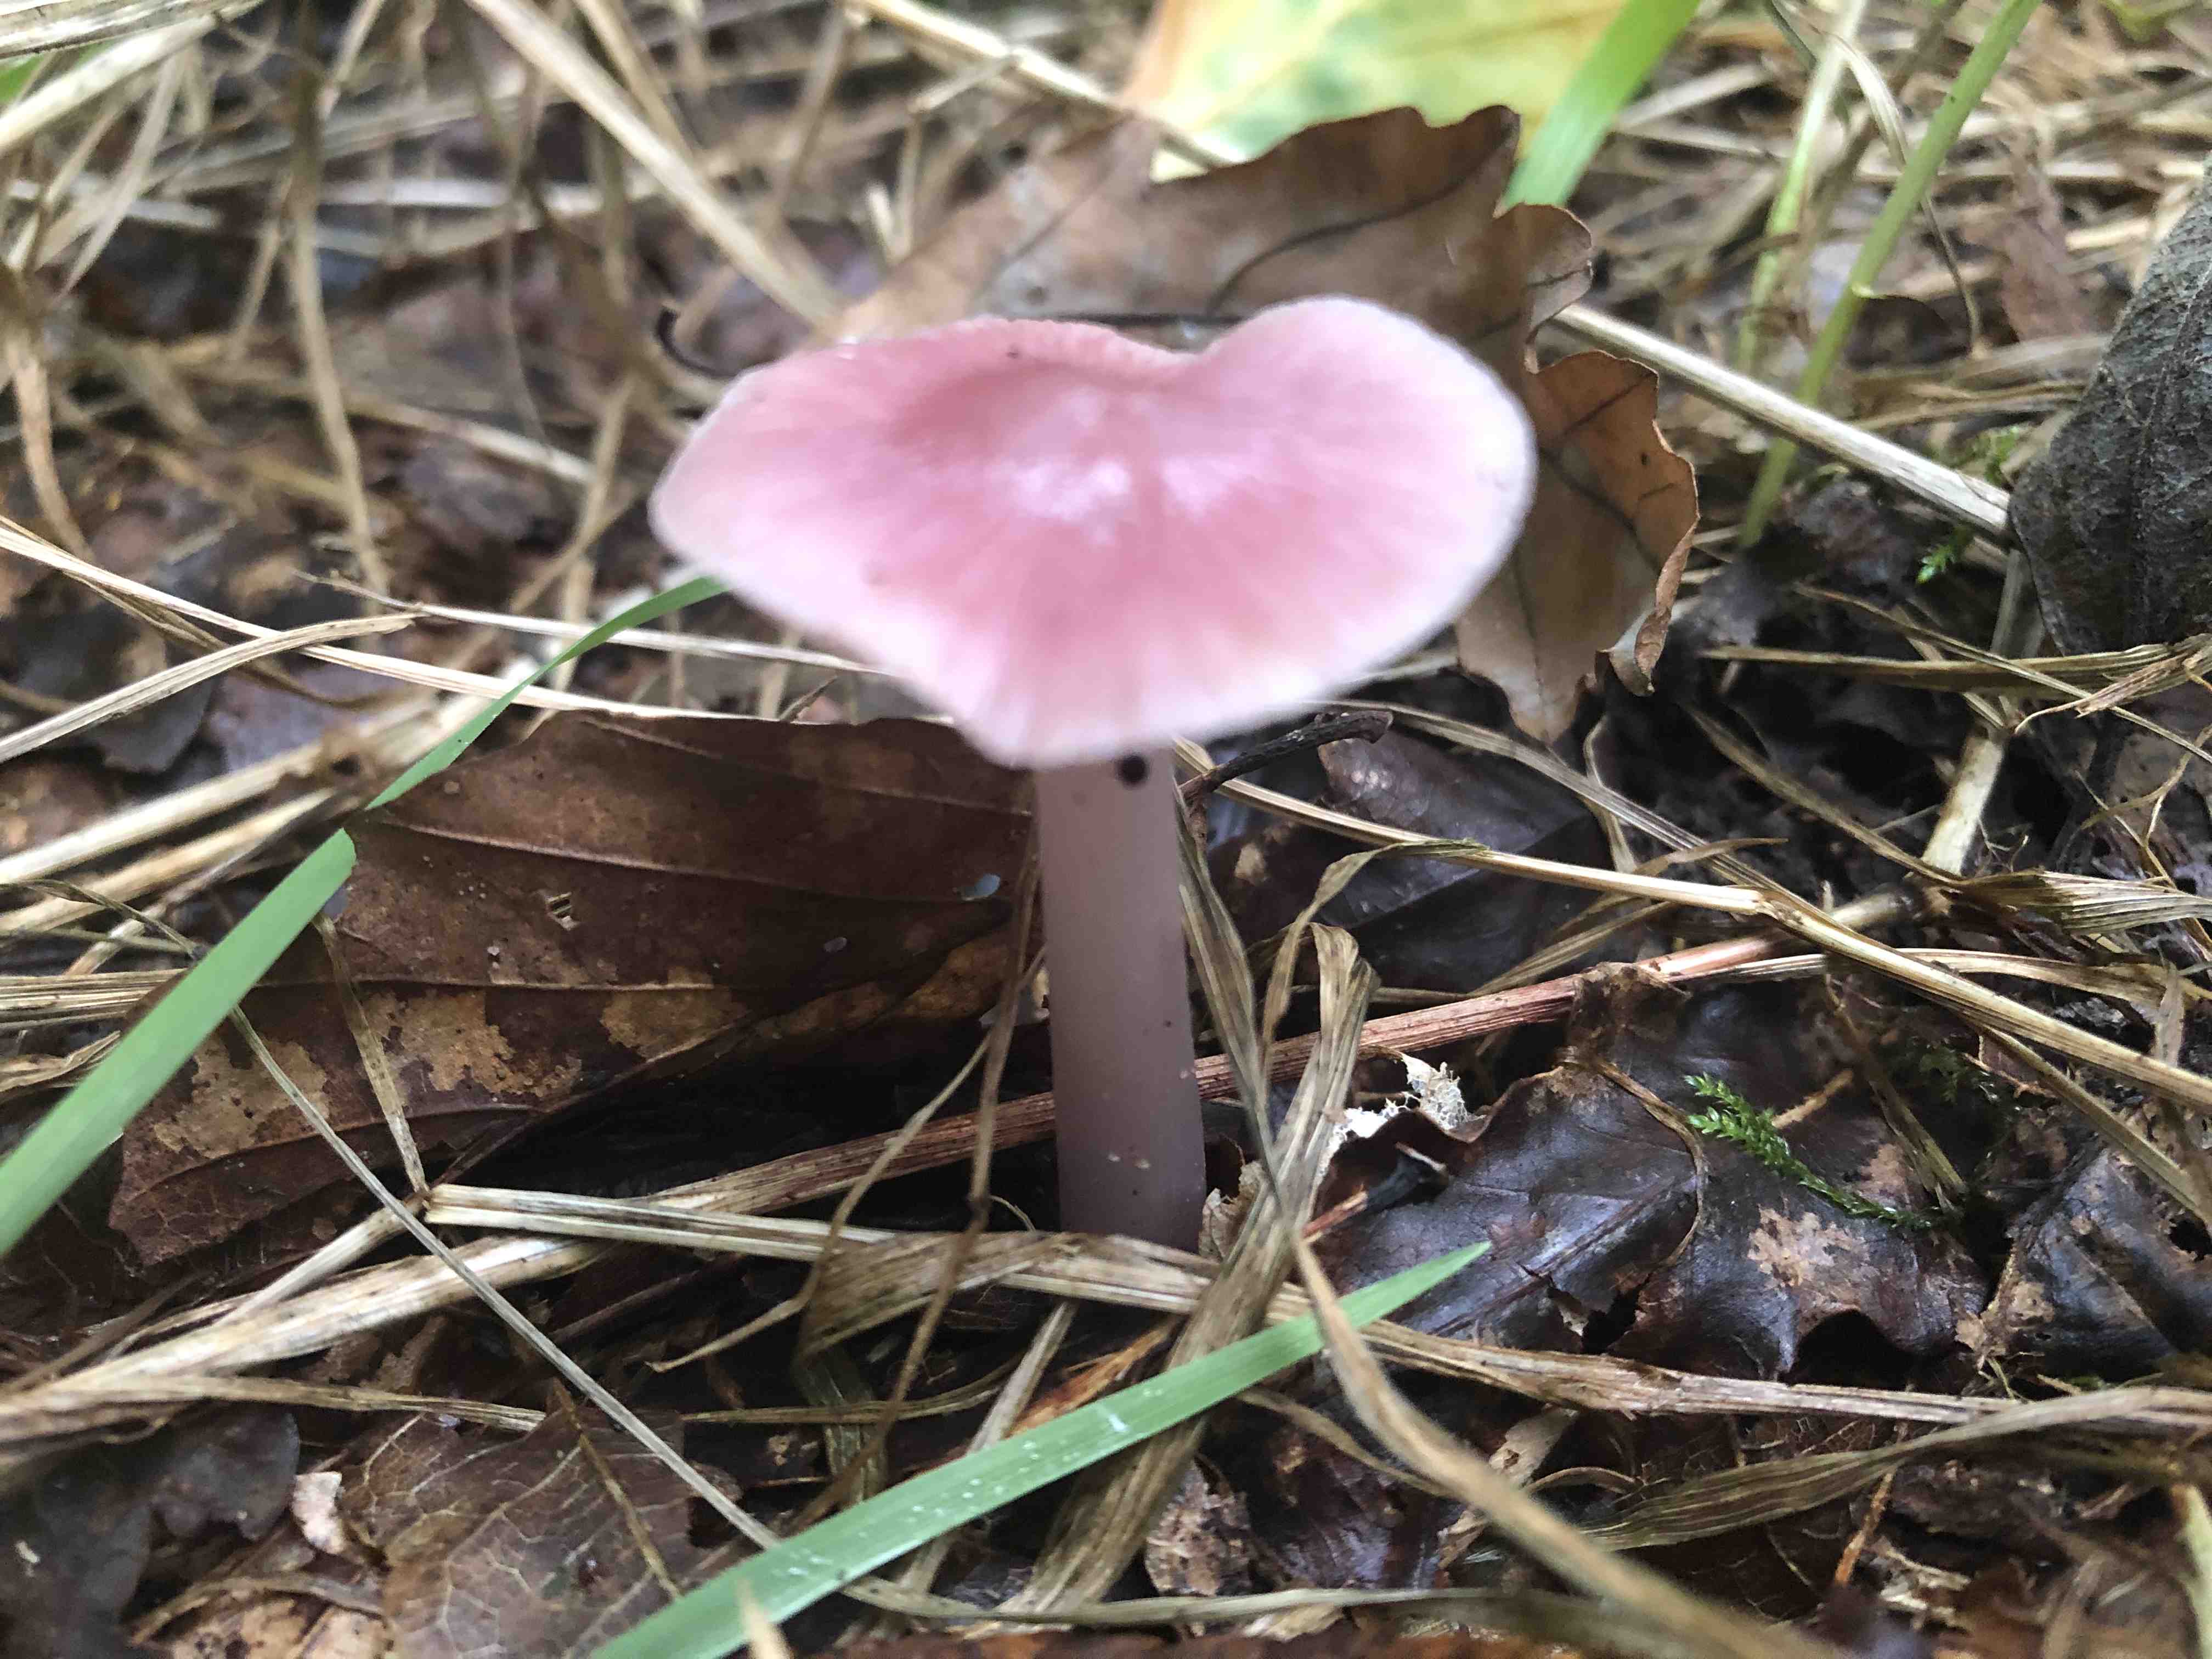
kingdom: Fungi
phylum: Basidiomycota
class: Agaricomycetes
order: Agaricales
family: Mycenaceae
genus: Mycena
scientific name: Mycena rosea
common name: rosa huesvamp
